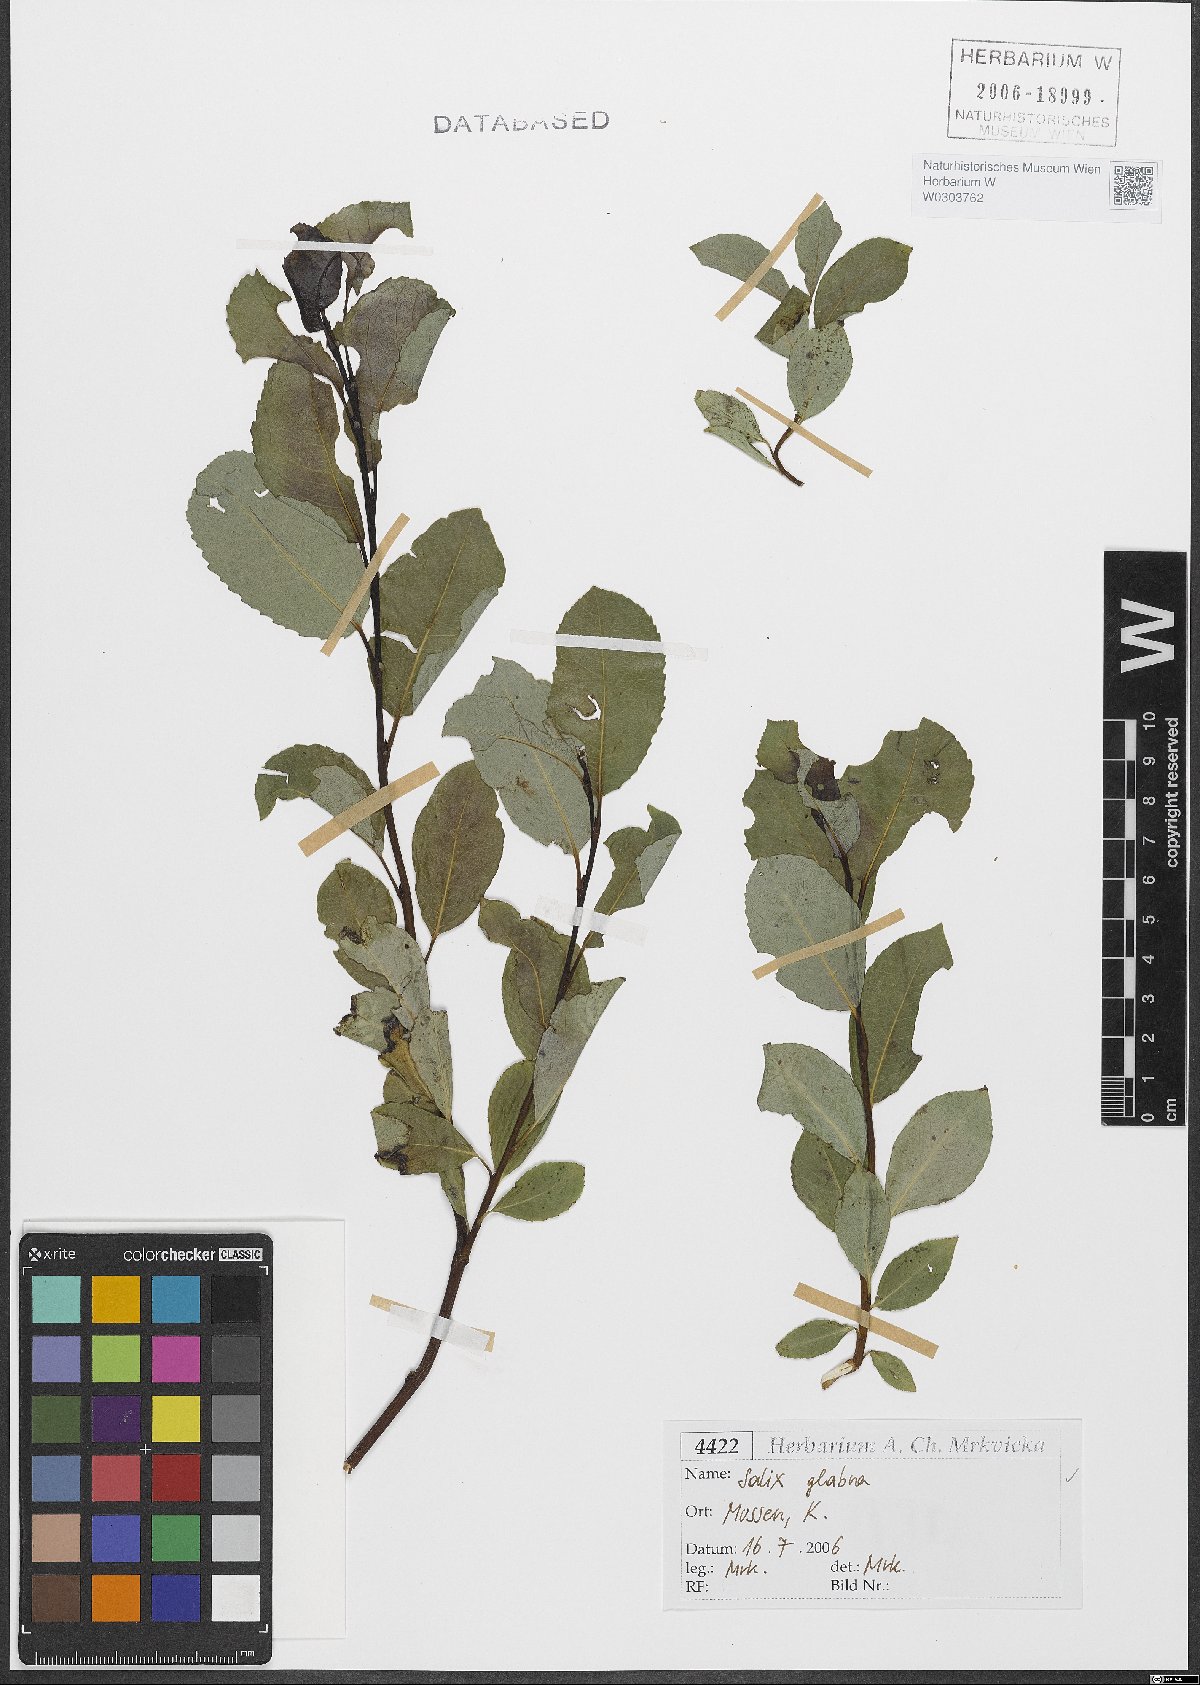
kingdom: Plantae
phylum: Tracheophyta
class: Magnoliopsida
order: Malpighiales
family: Salicaceae
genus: Salix
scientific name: Salix glabra
